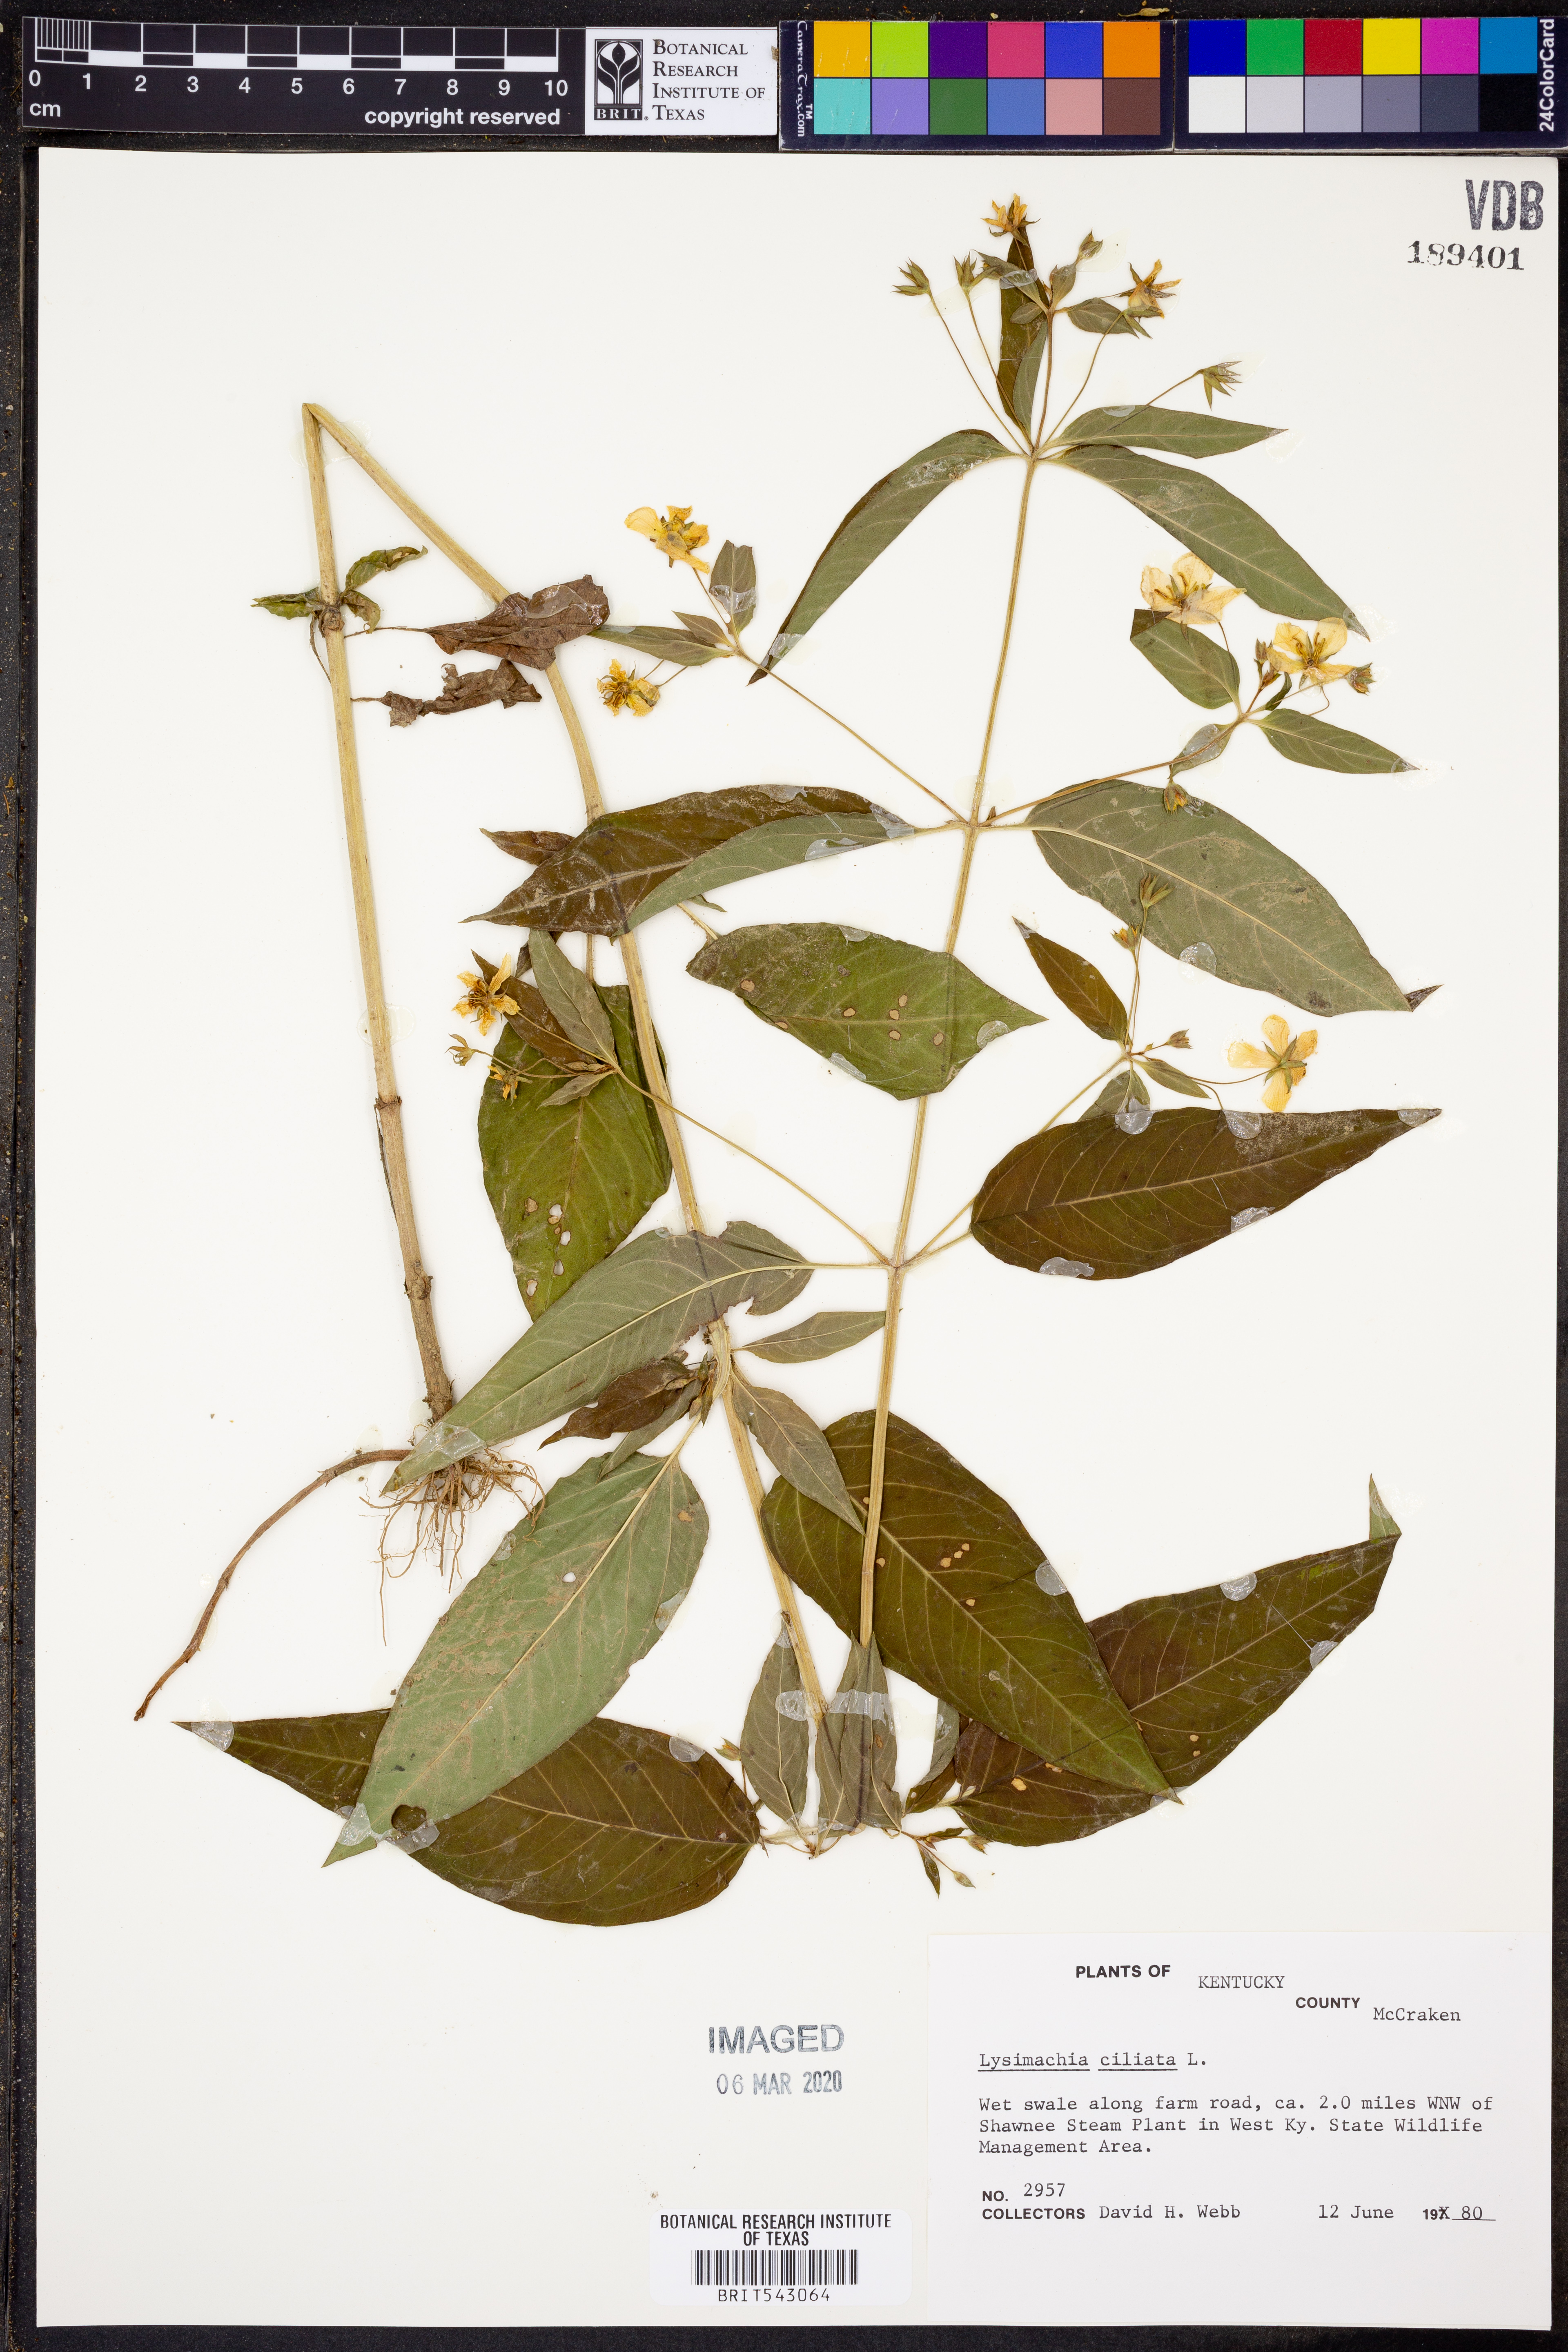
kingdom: Plantae
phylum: Tracheophyta
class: Magnoliopsida
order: Ericales
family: Primulaceae
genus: Lysimachia
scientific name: Lysimachia ciliata
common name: Fringed loosestrife
